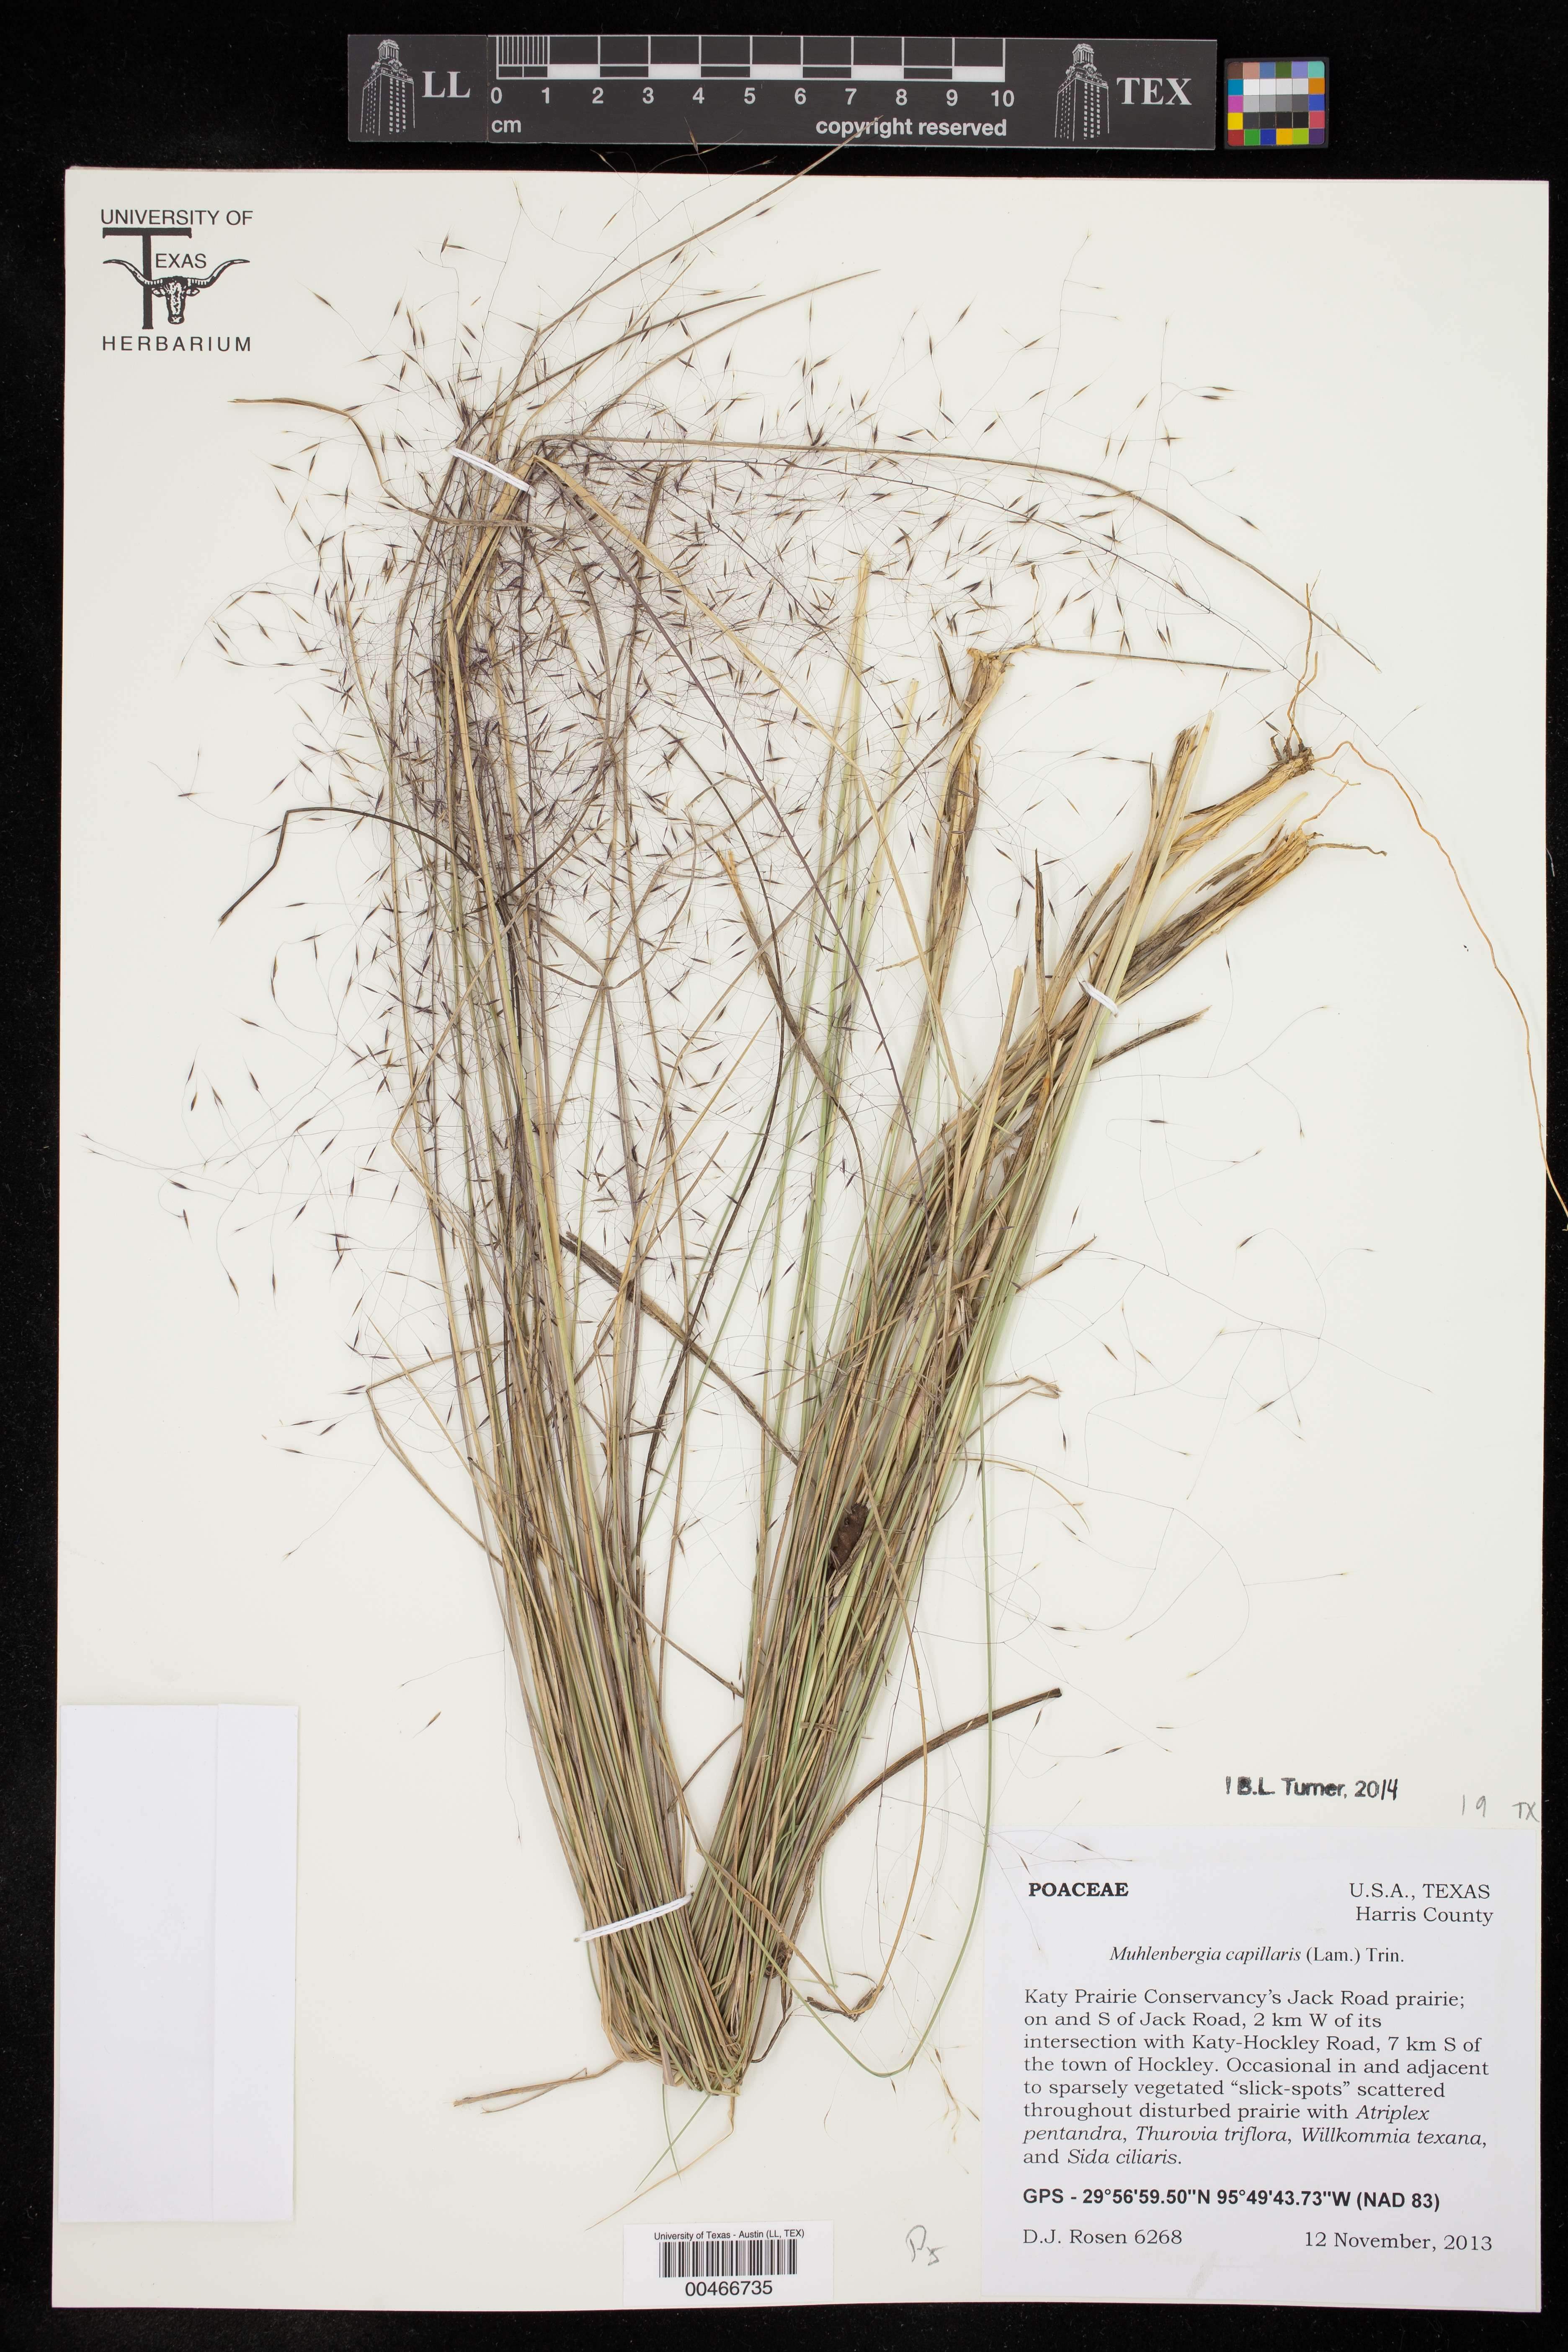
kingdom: Plantae
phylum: Tracheophyta
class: Liliopsida
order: Poales
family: Poaceae
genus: Muhlenbergia
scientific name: Muhlenbergia capillaris
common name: Purple grass
